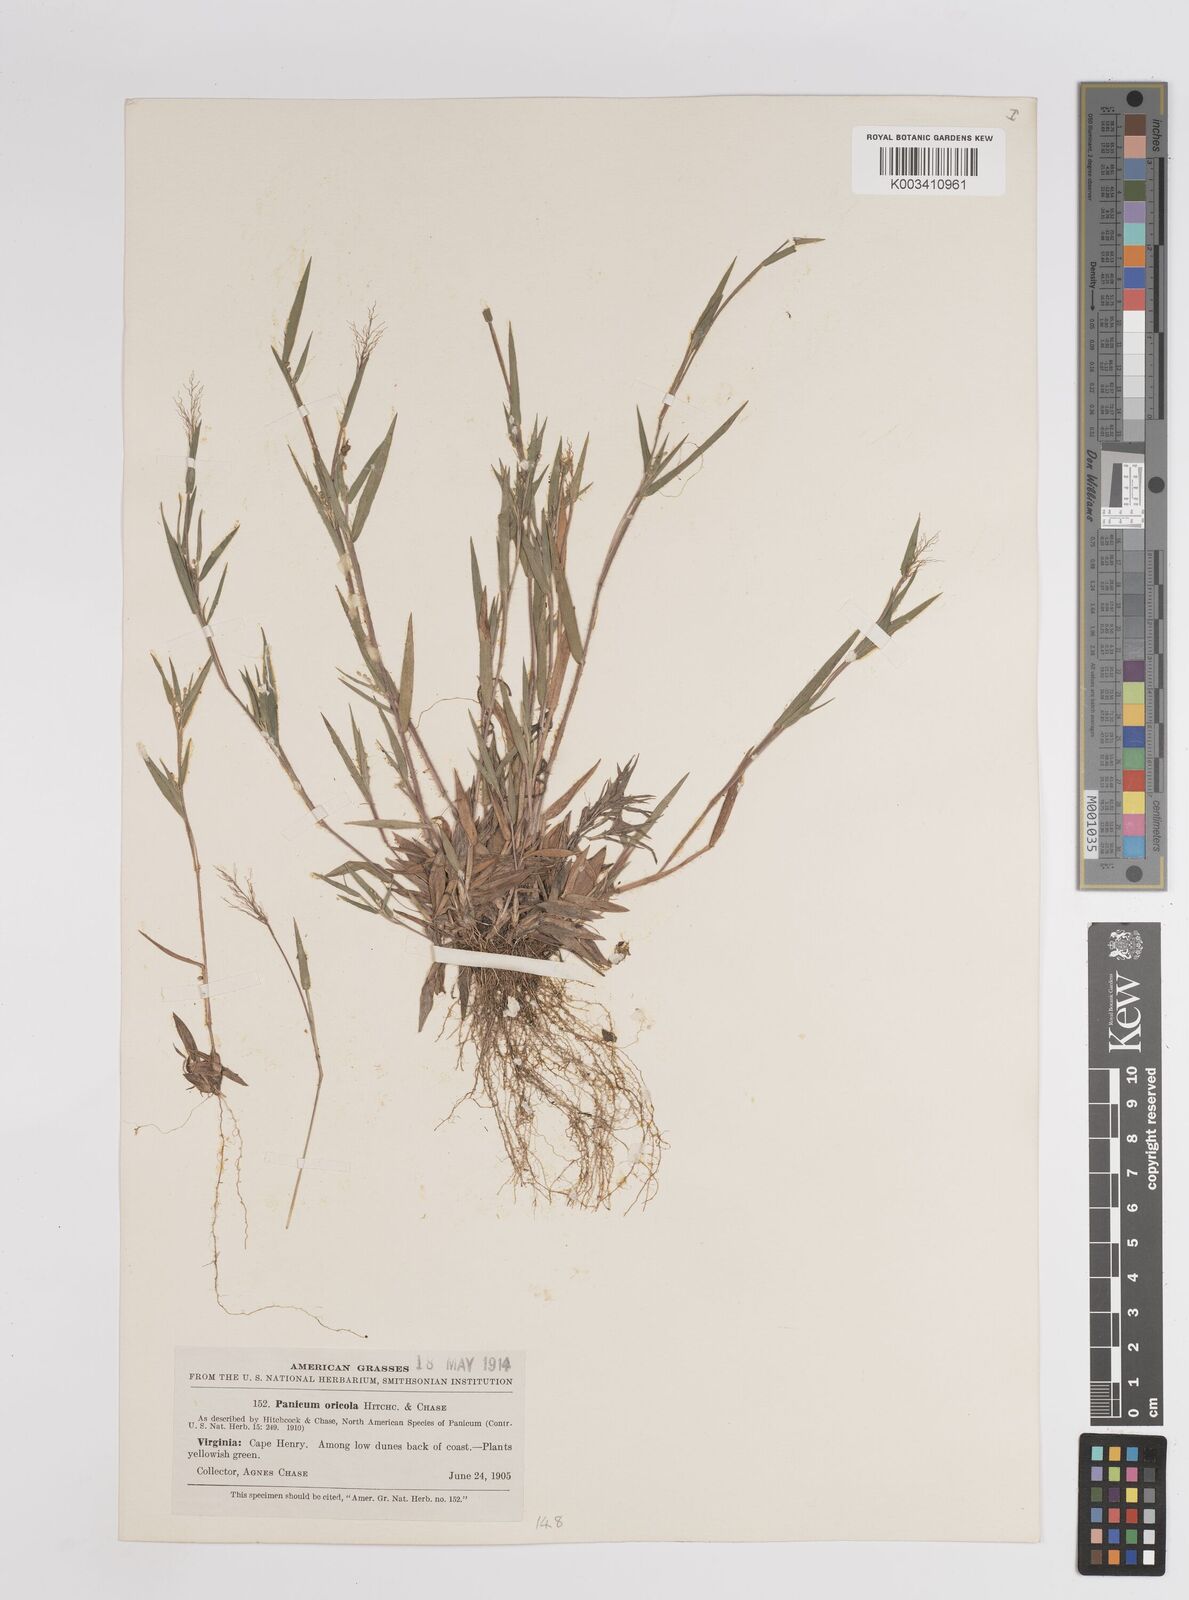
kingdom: Plantae
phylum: Tracheophyta
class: Liliopsida
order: Poales
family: Poaceae
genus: Dichanthelium
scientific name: Dichanthelium columbianum
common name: Hemlock panic grass
